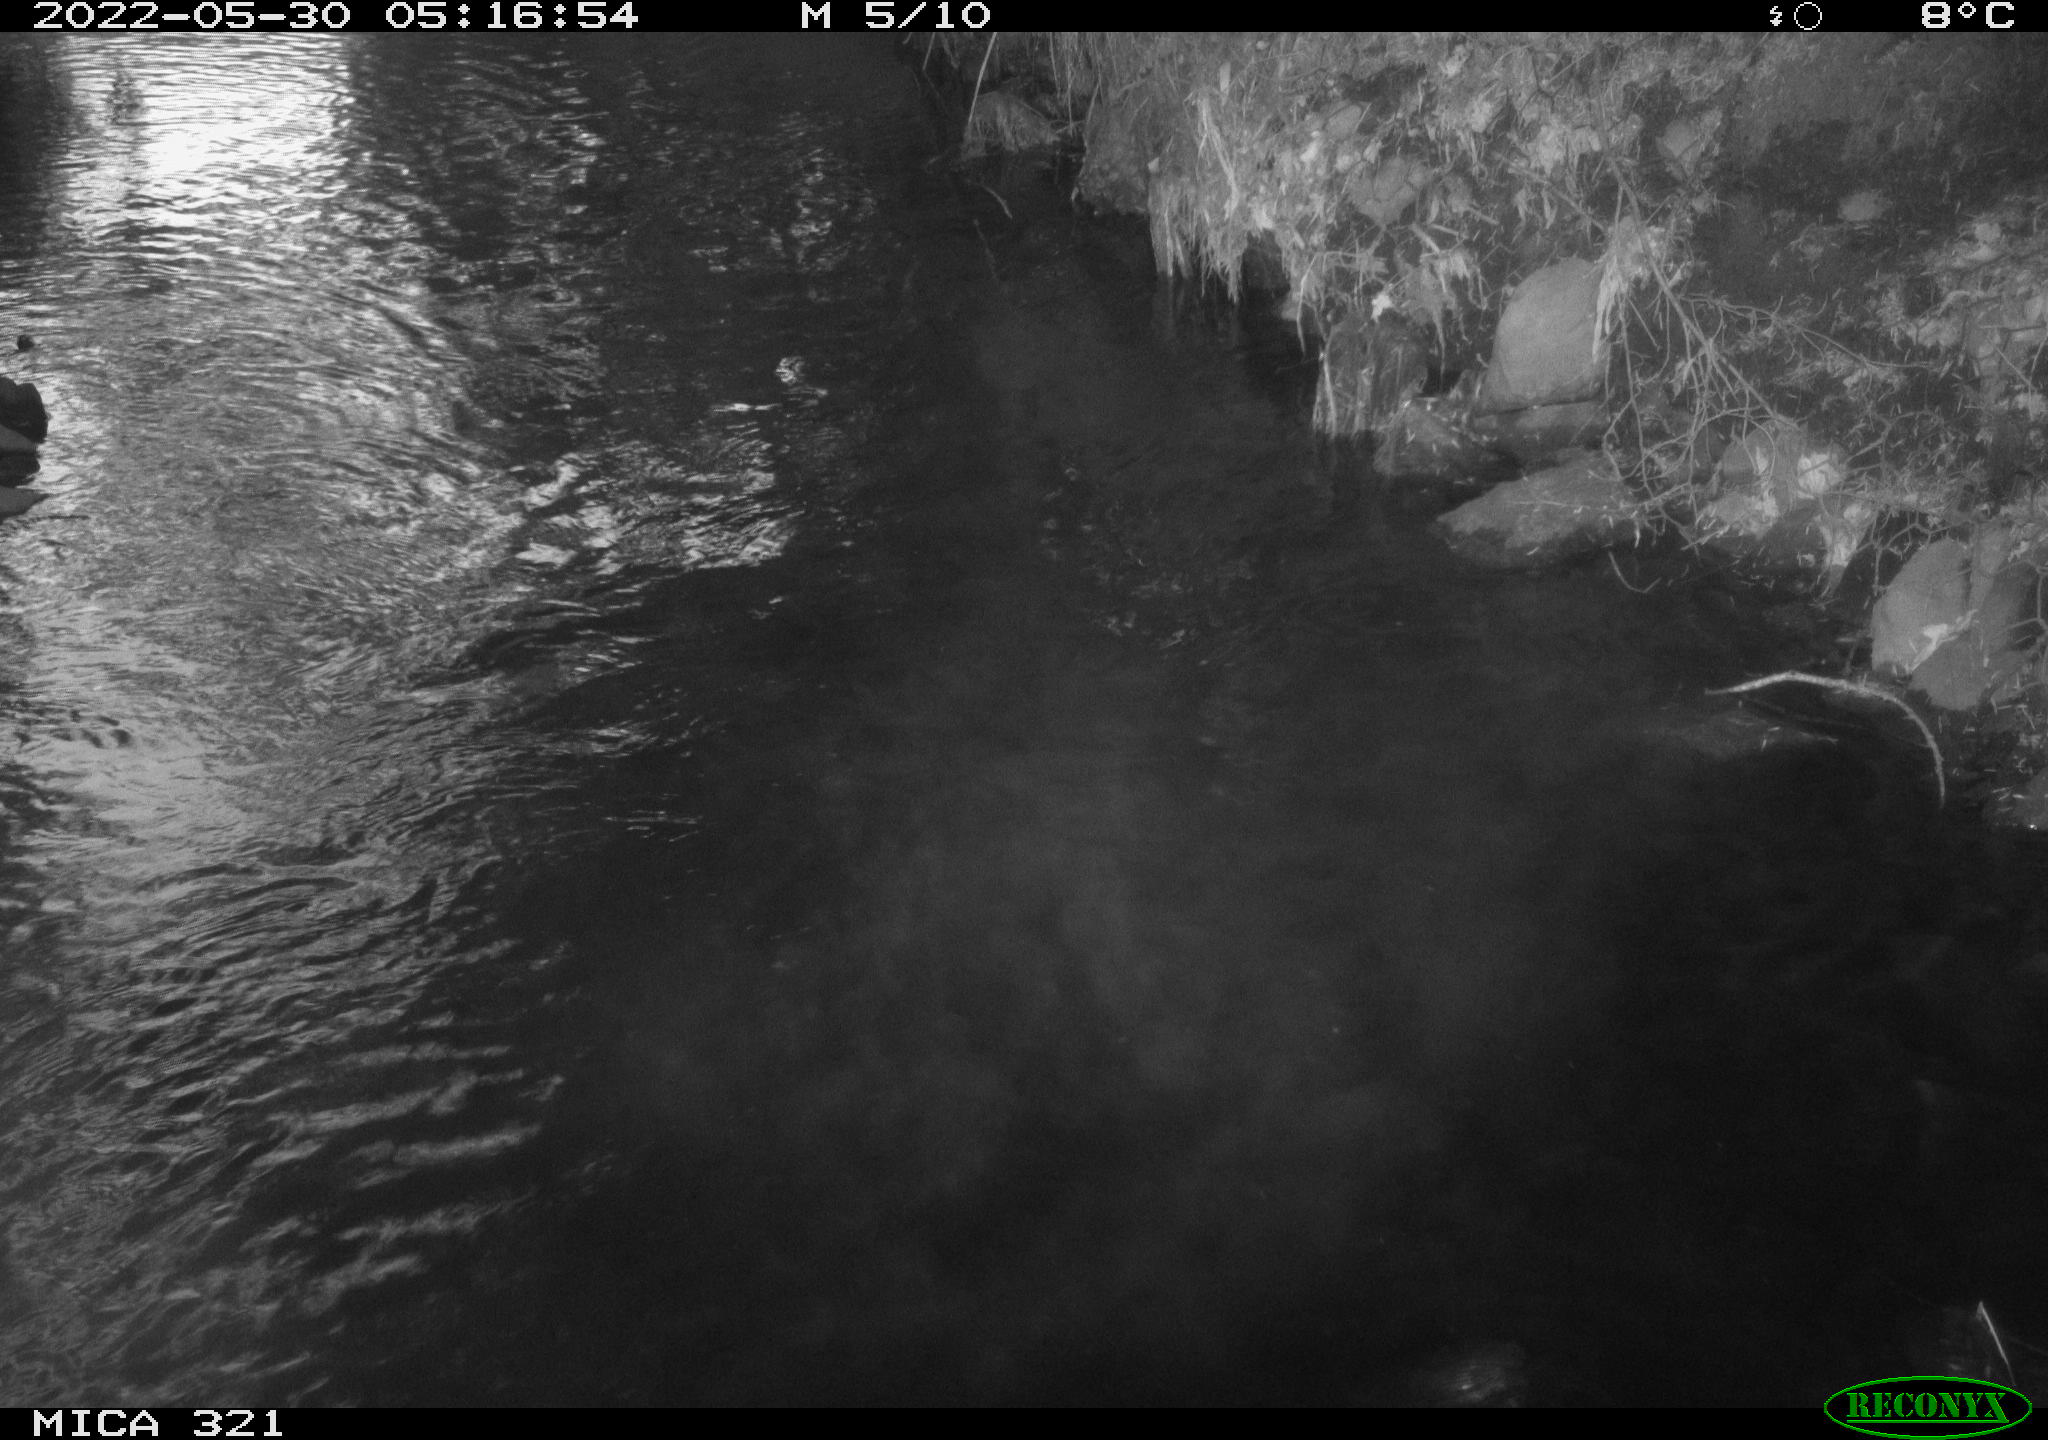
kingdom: Animalia
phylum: Chordata
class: Aves
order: Anseriformes
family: Anatidae
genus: Anas
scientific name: Anas platyrhynchos
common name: Mallard
